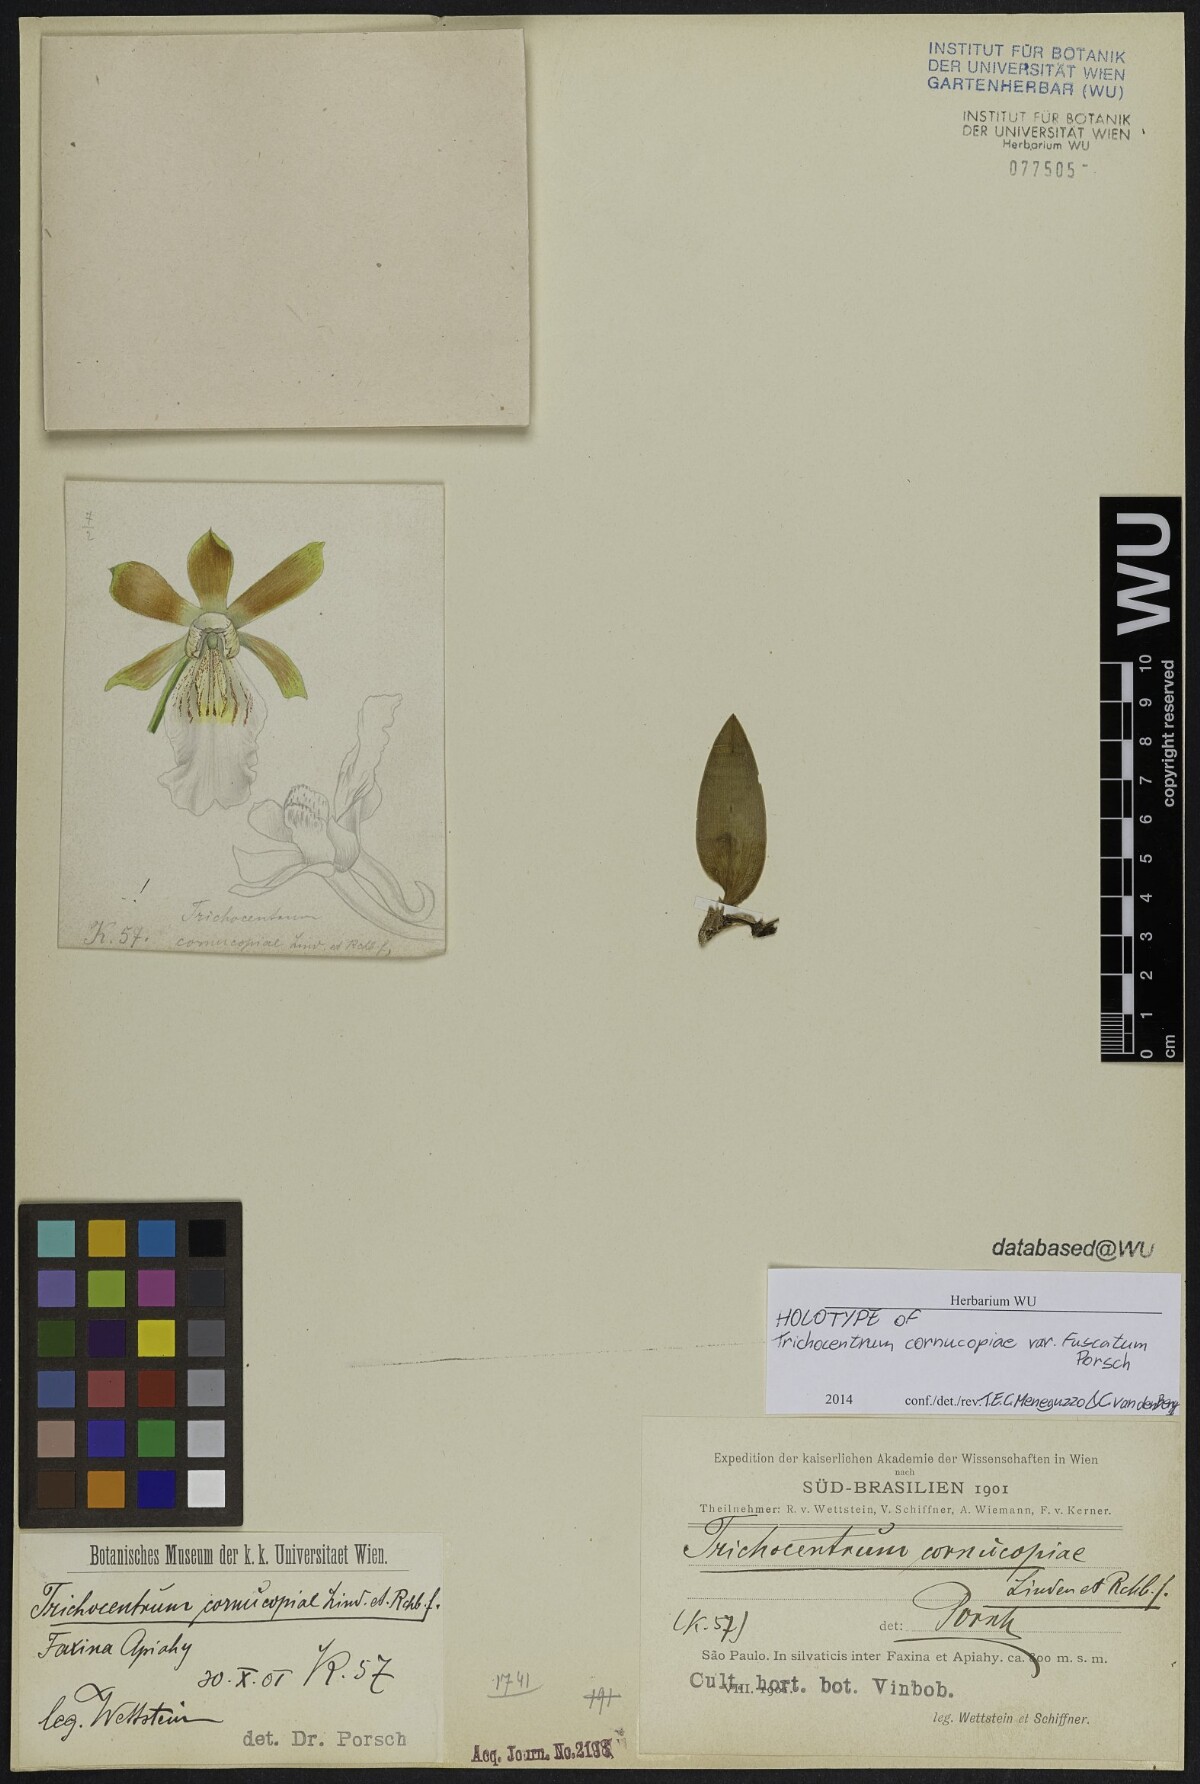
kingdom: Plantae
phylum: Tracheophyta
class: Liliopsida
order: Asparagales
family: Orchidaceae
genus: Trichocentrum
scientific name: Trichocentrum fuscum
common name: Mule-ear orchid
